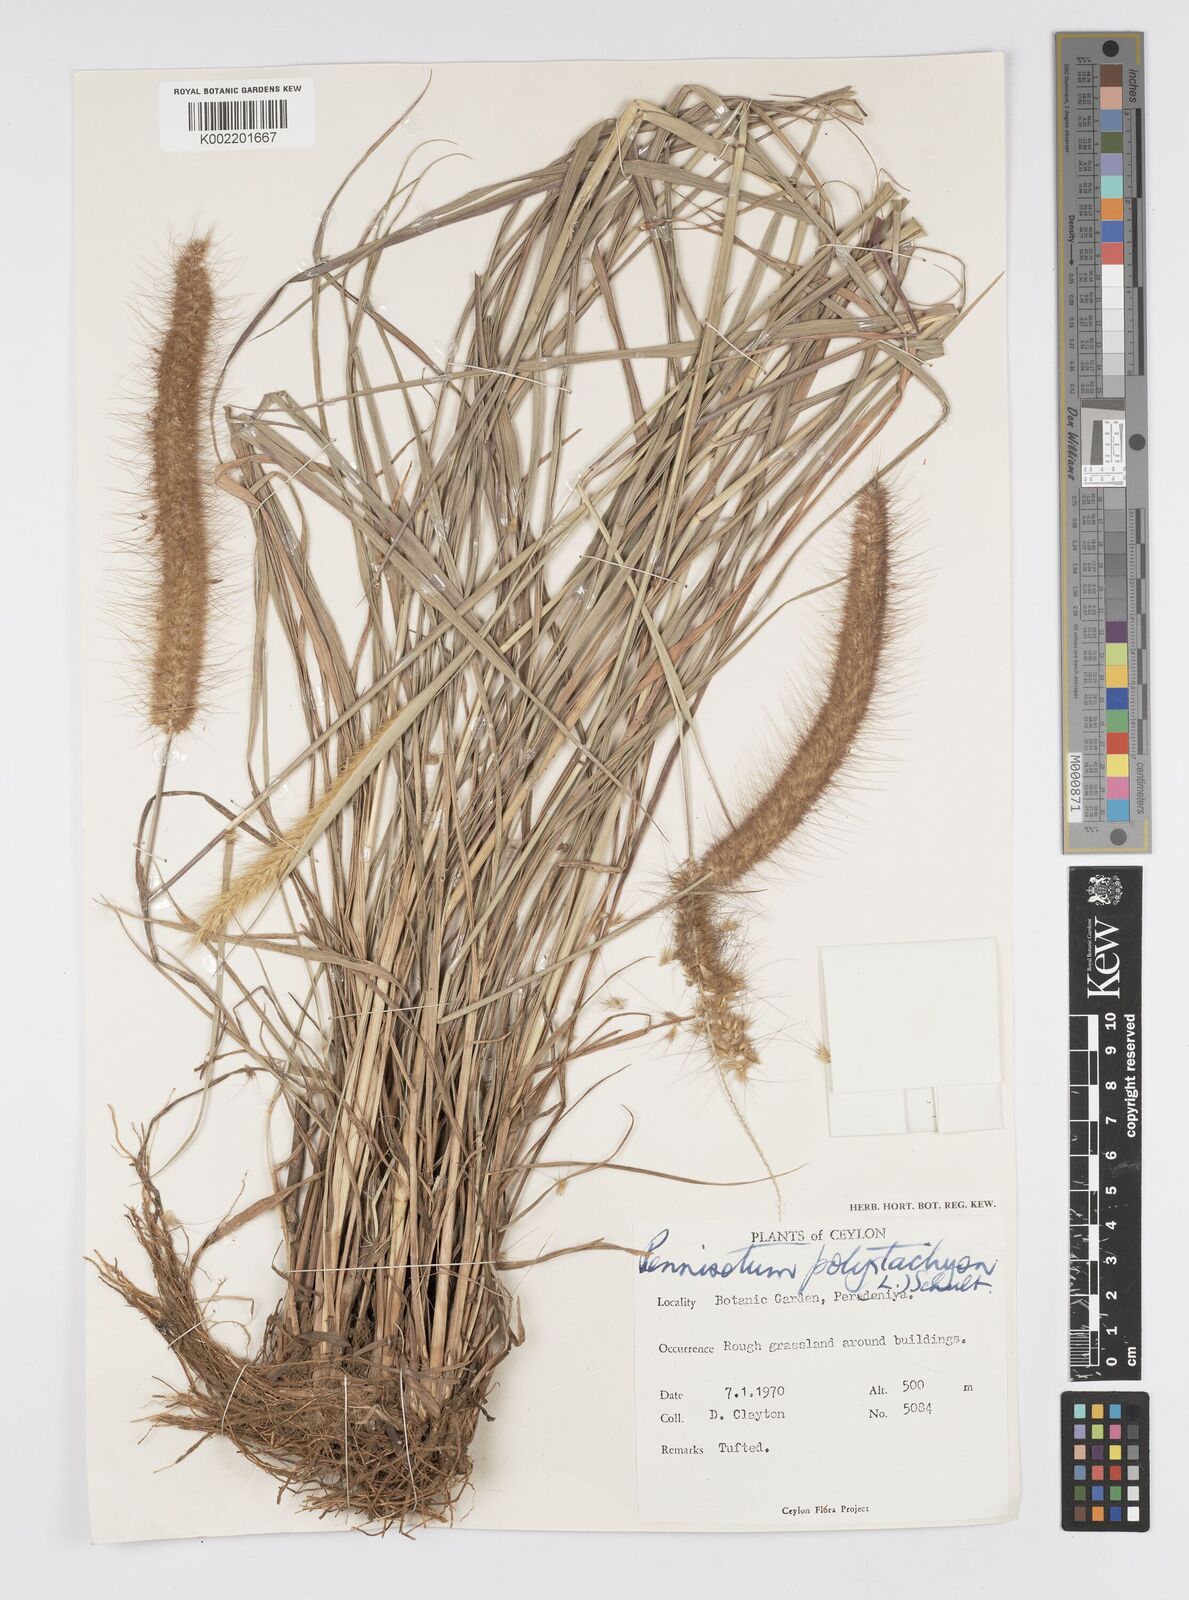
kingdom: Plantae
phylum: Tracheophyta
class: Liliopsida
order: Poales
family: Poaceae
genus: Setaria
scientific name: Setaria parviflora
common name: Knotroot bristle-grass
